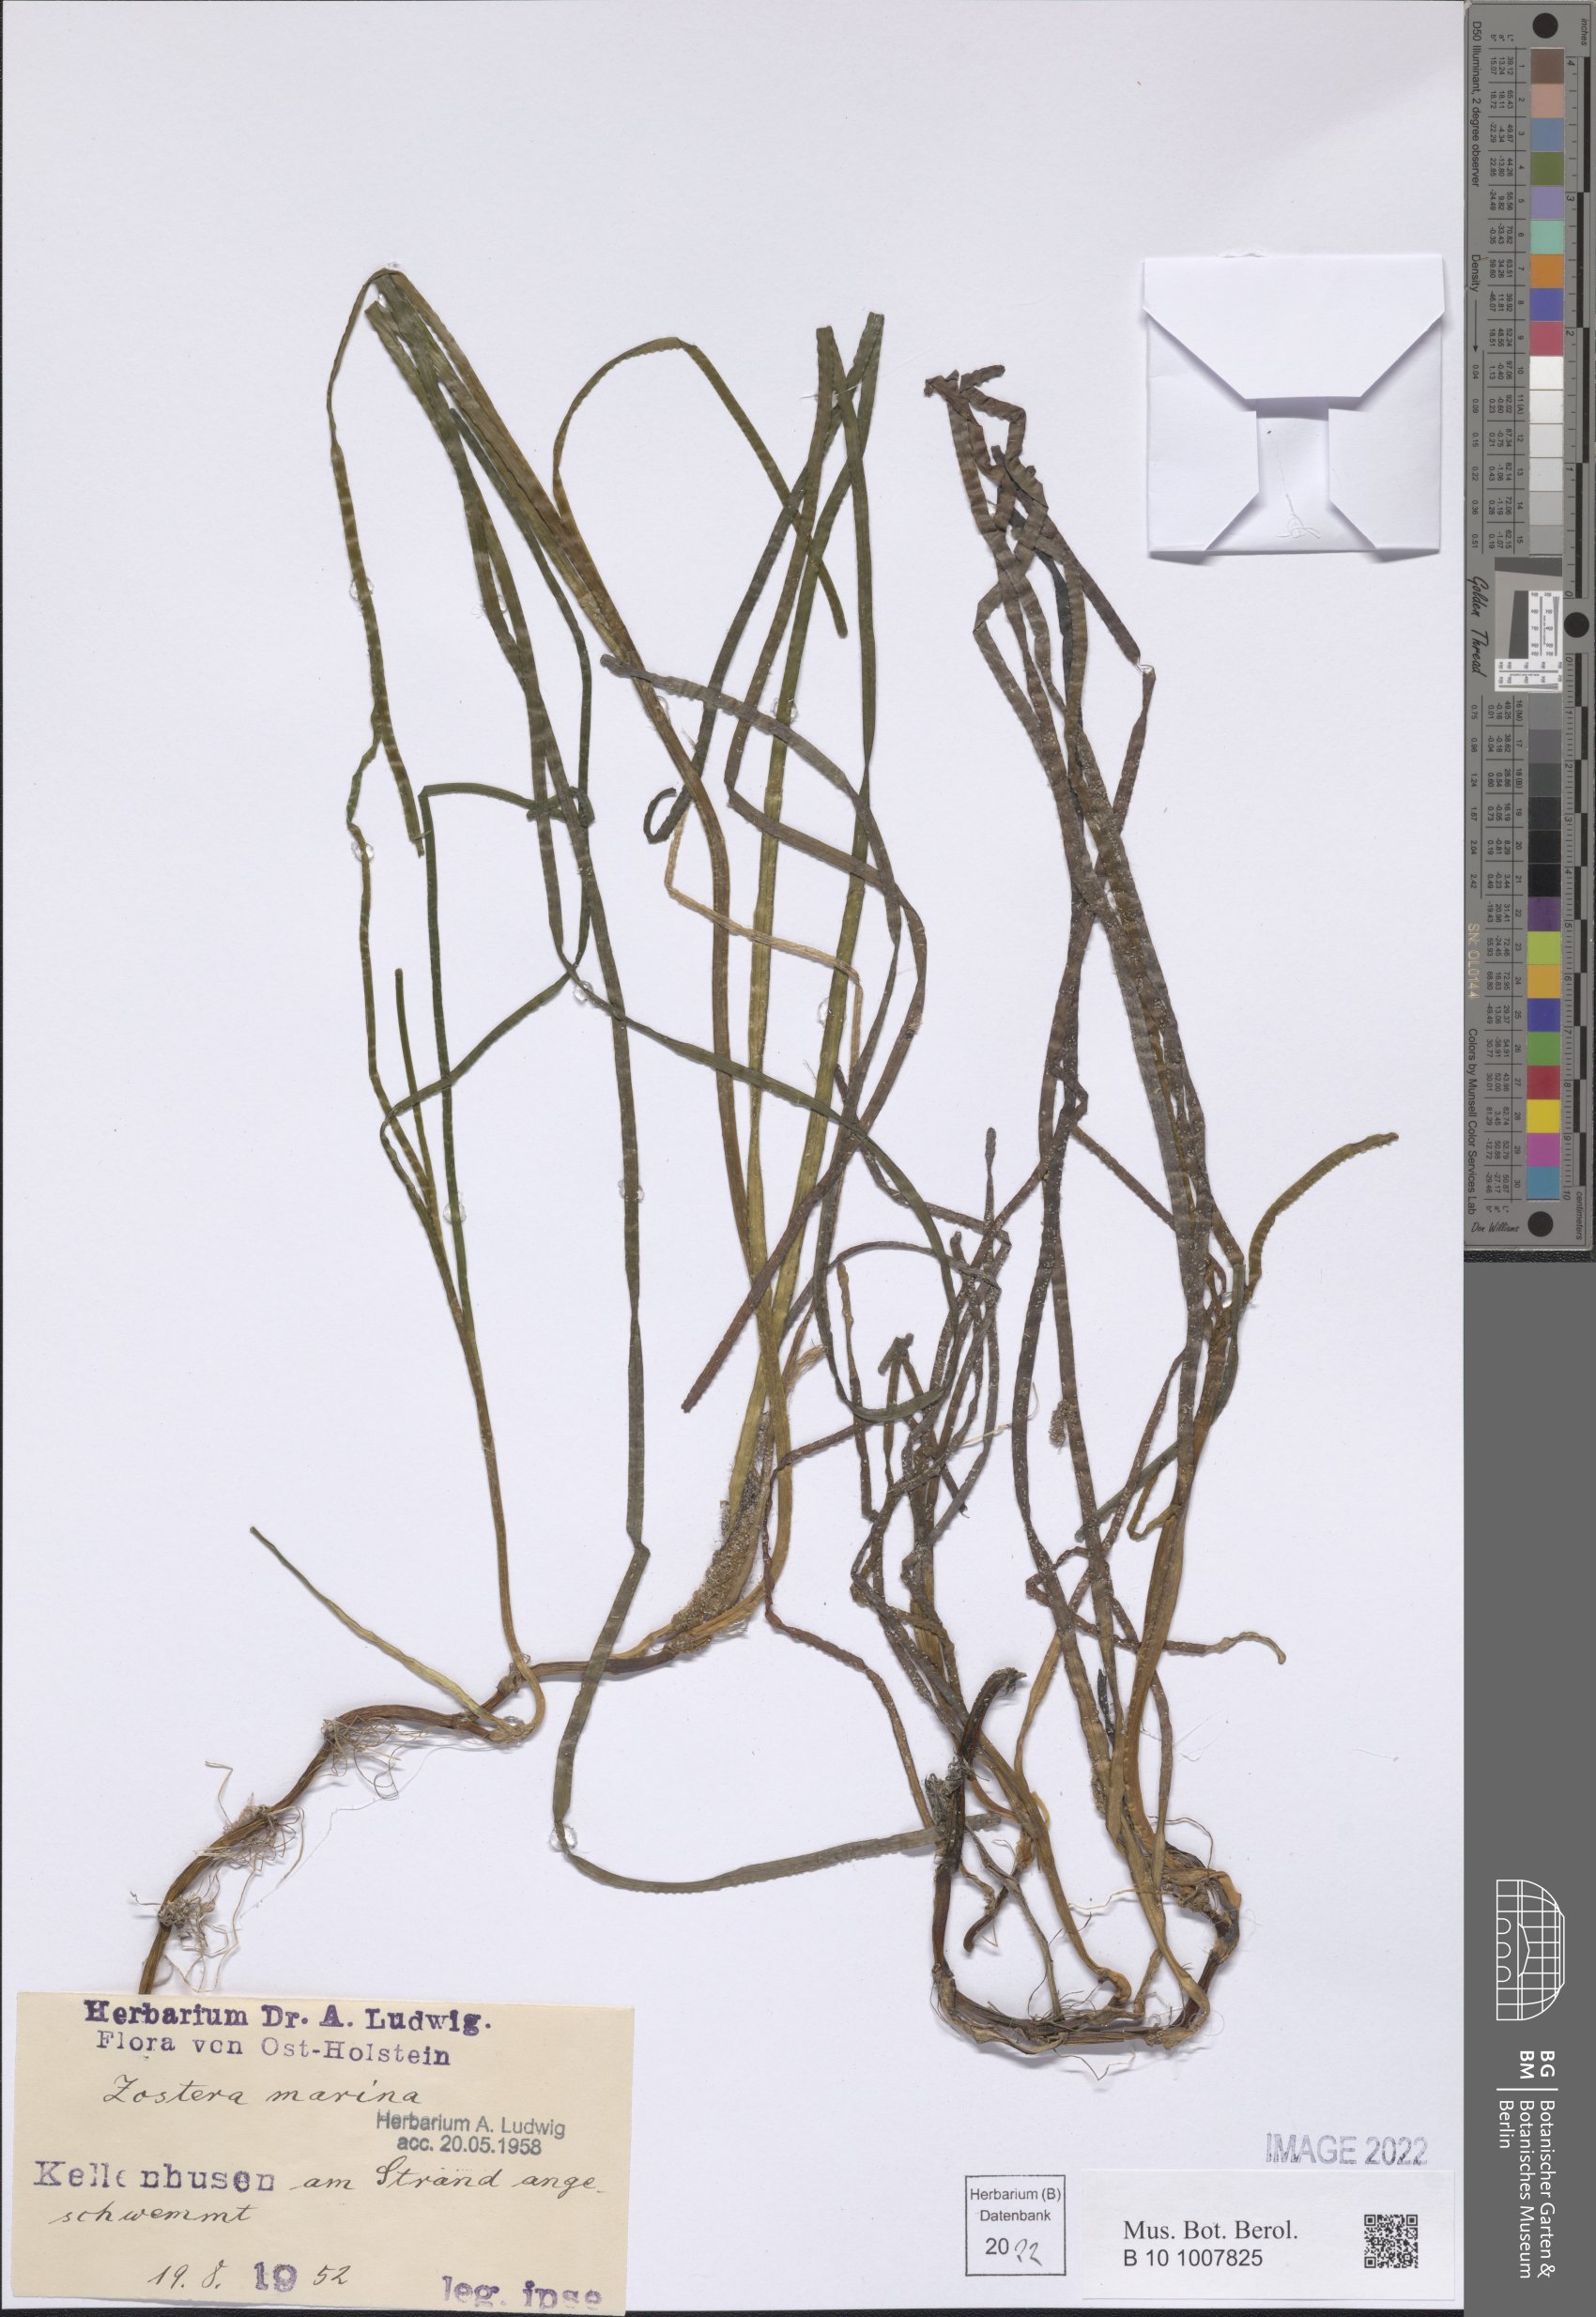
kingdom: Plantae
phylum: Tracheophyta
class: Liliopsida
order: Alismatales
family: Zosteraceae
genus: Zostera
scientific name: Zostera marina
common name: Eelgrass
